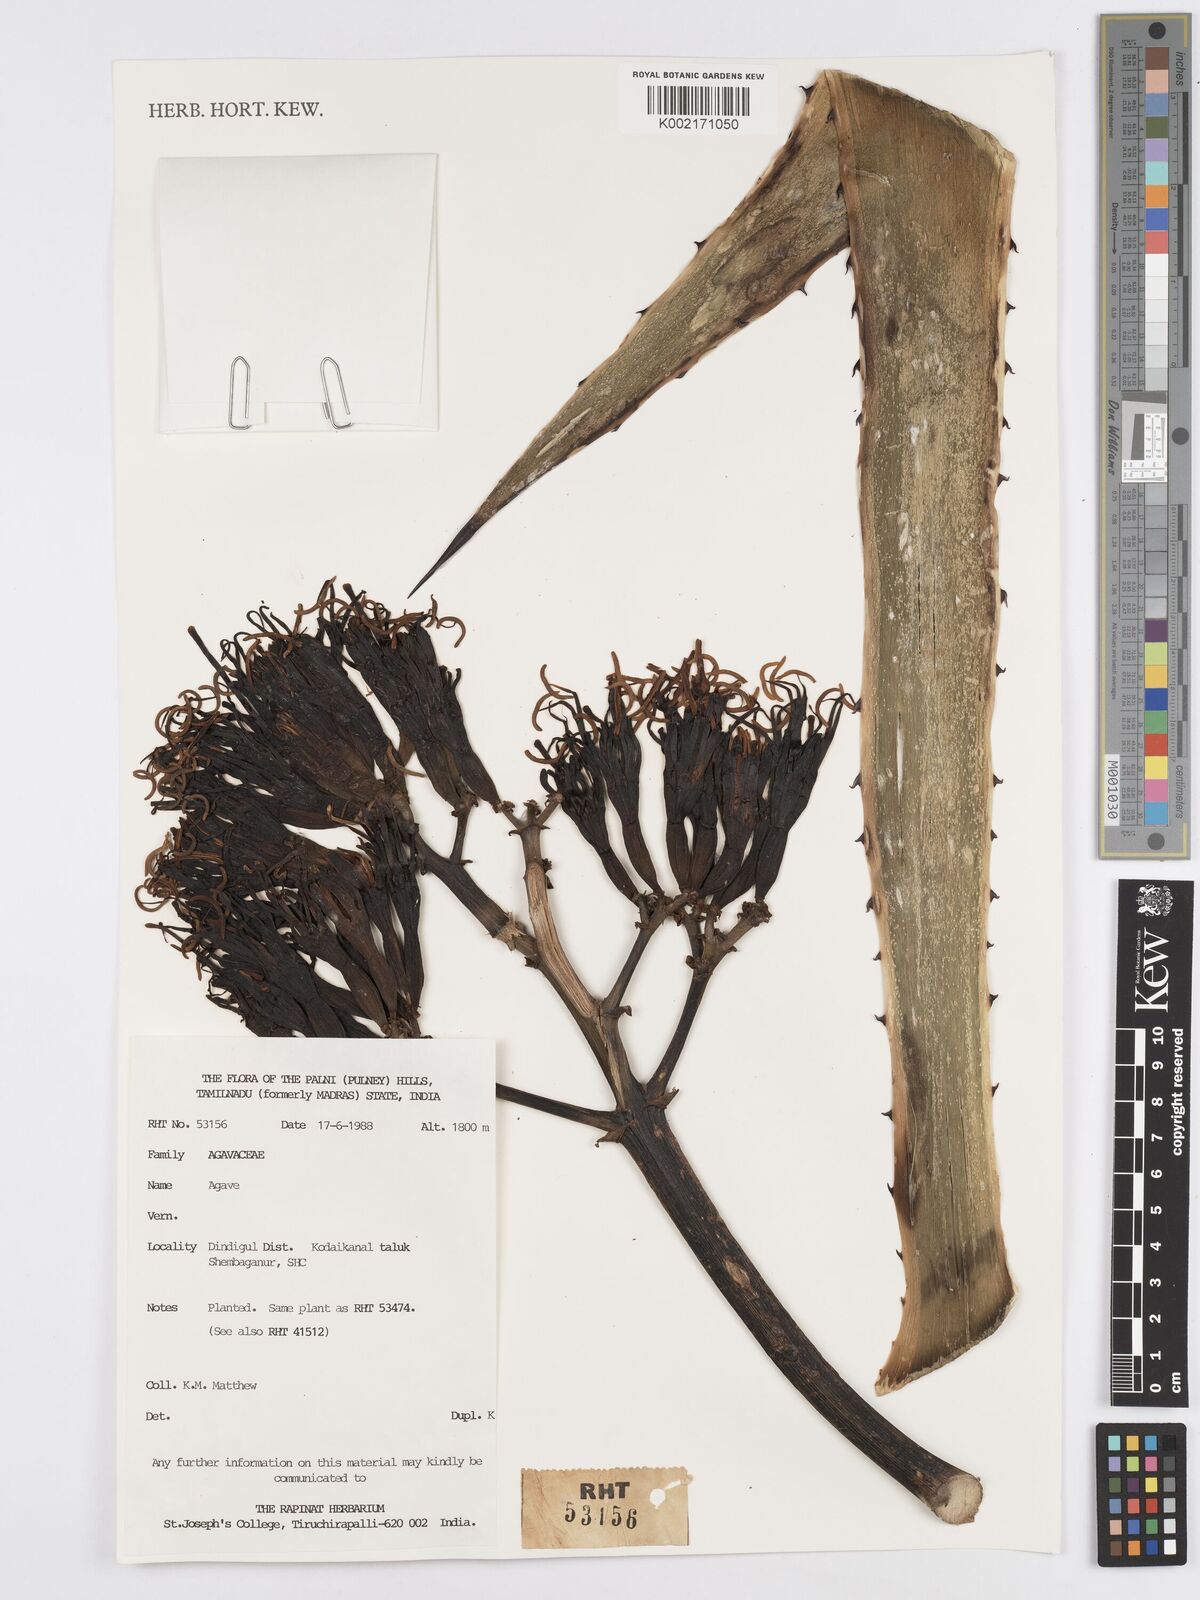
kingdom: Plantae
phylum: Tracheophyta
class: Liliopsida
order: Asparagales
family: Asparagaceae
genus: Agave
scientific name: Agave
